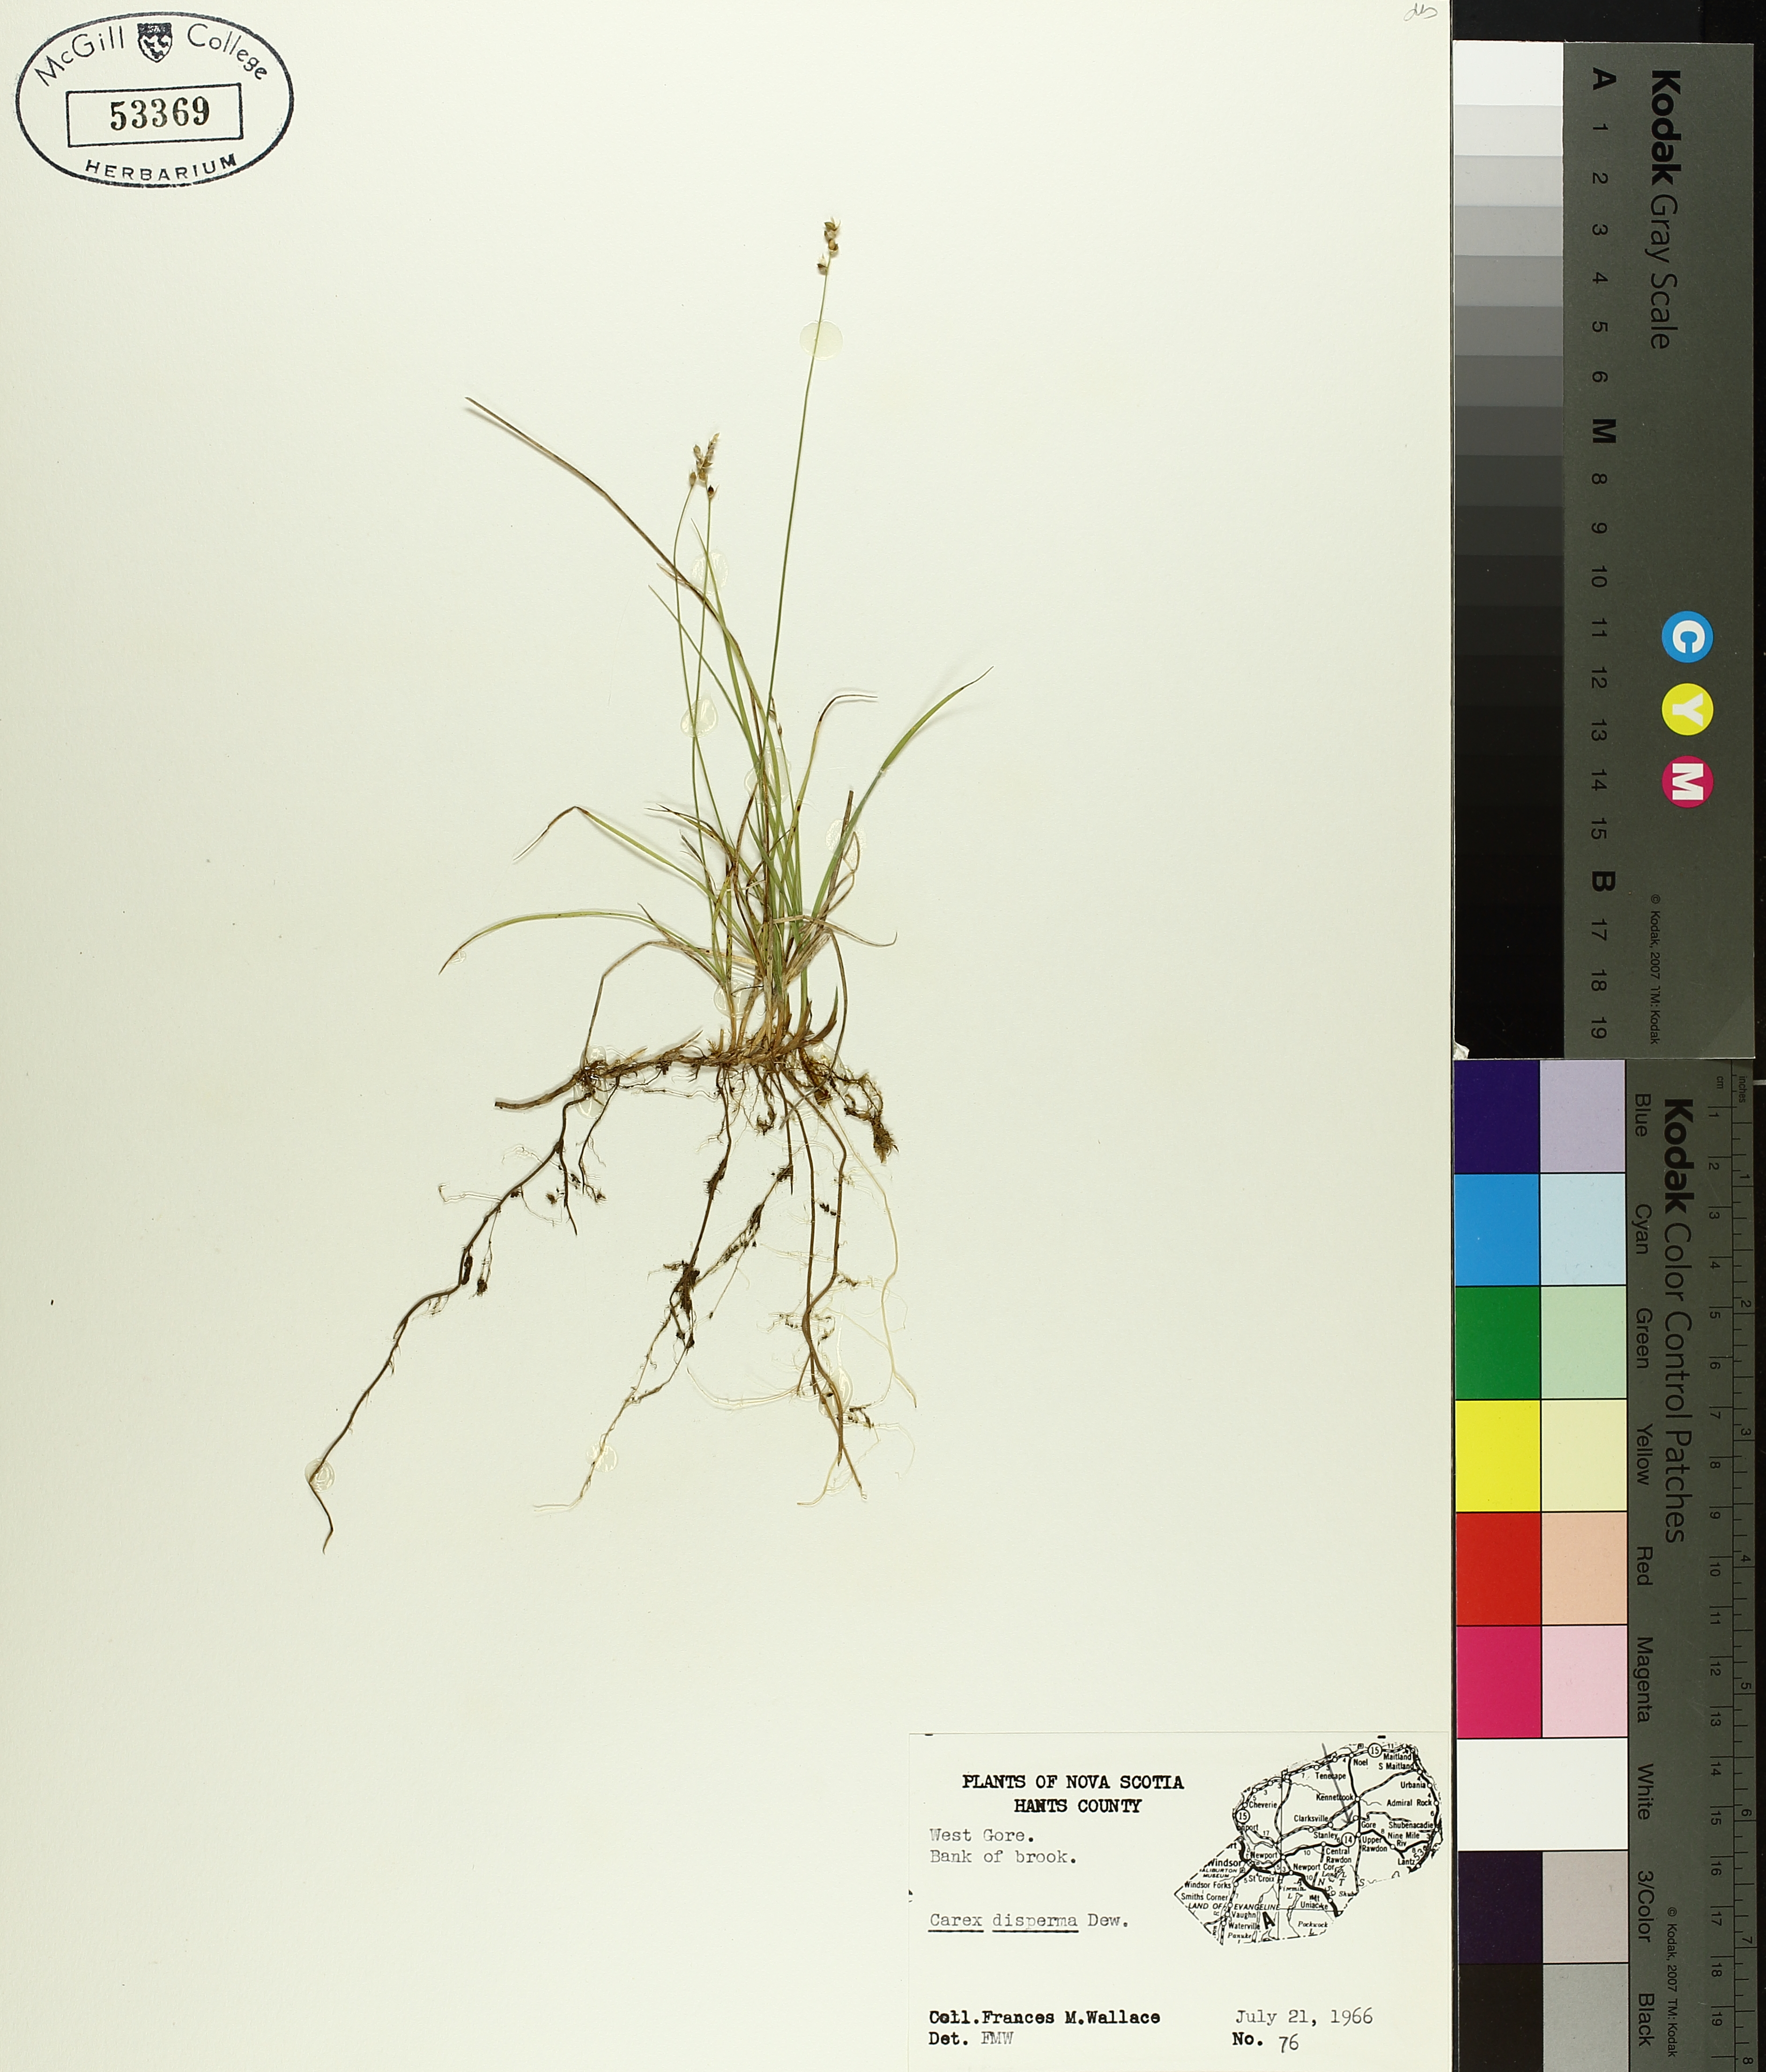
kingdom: Plantae
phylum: Tracheophyta
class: Liliopsida
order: Poales
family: Cyperaceae
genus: Carex
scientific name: Carex disperma
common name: Short-leaved sedge
